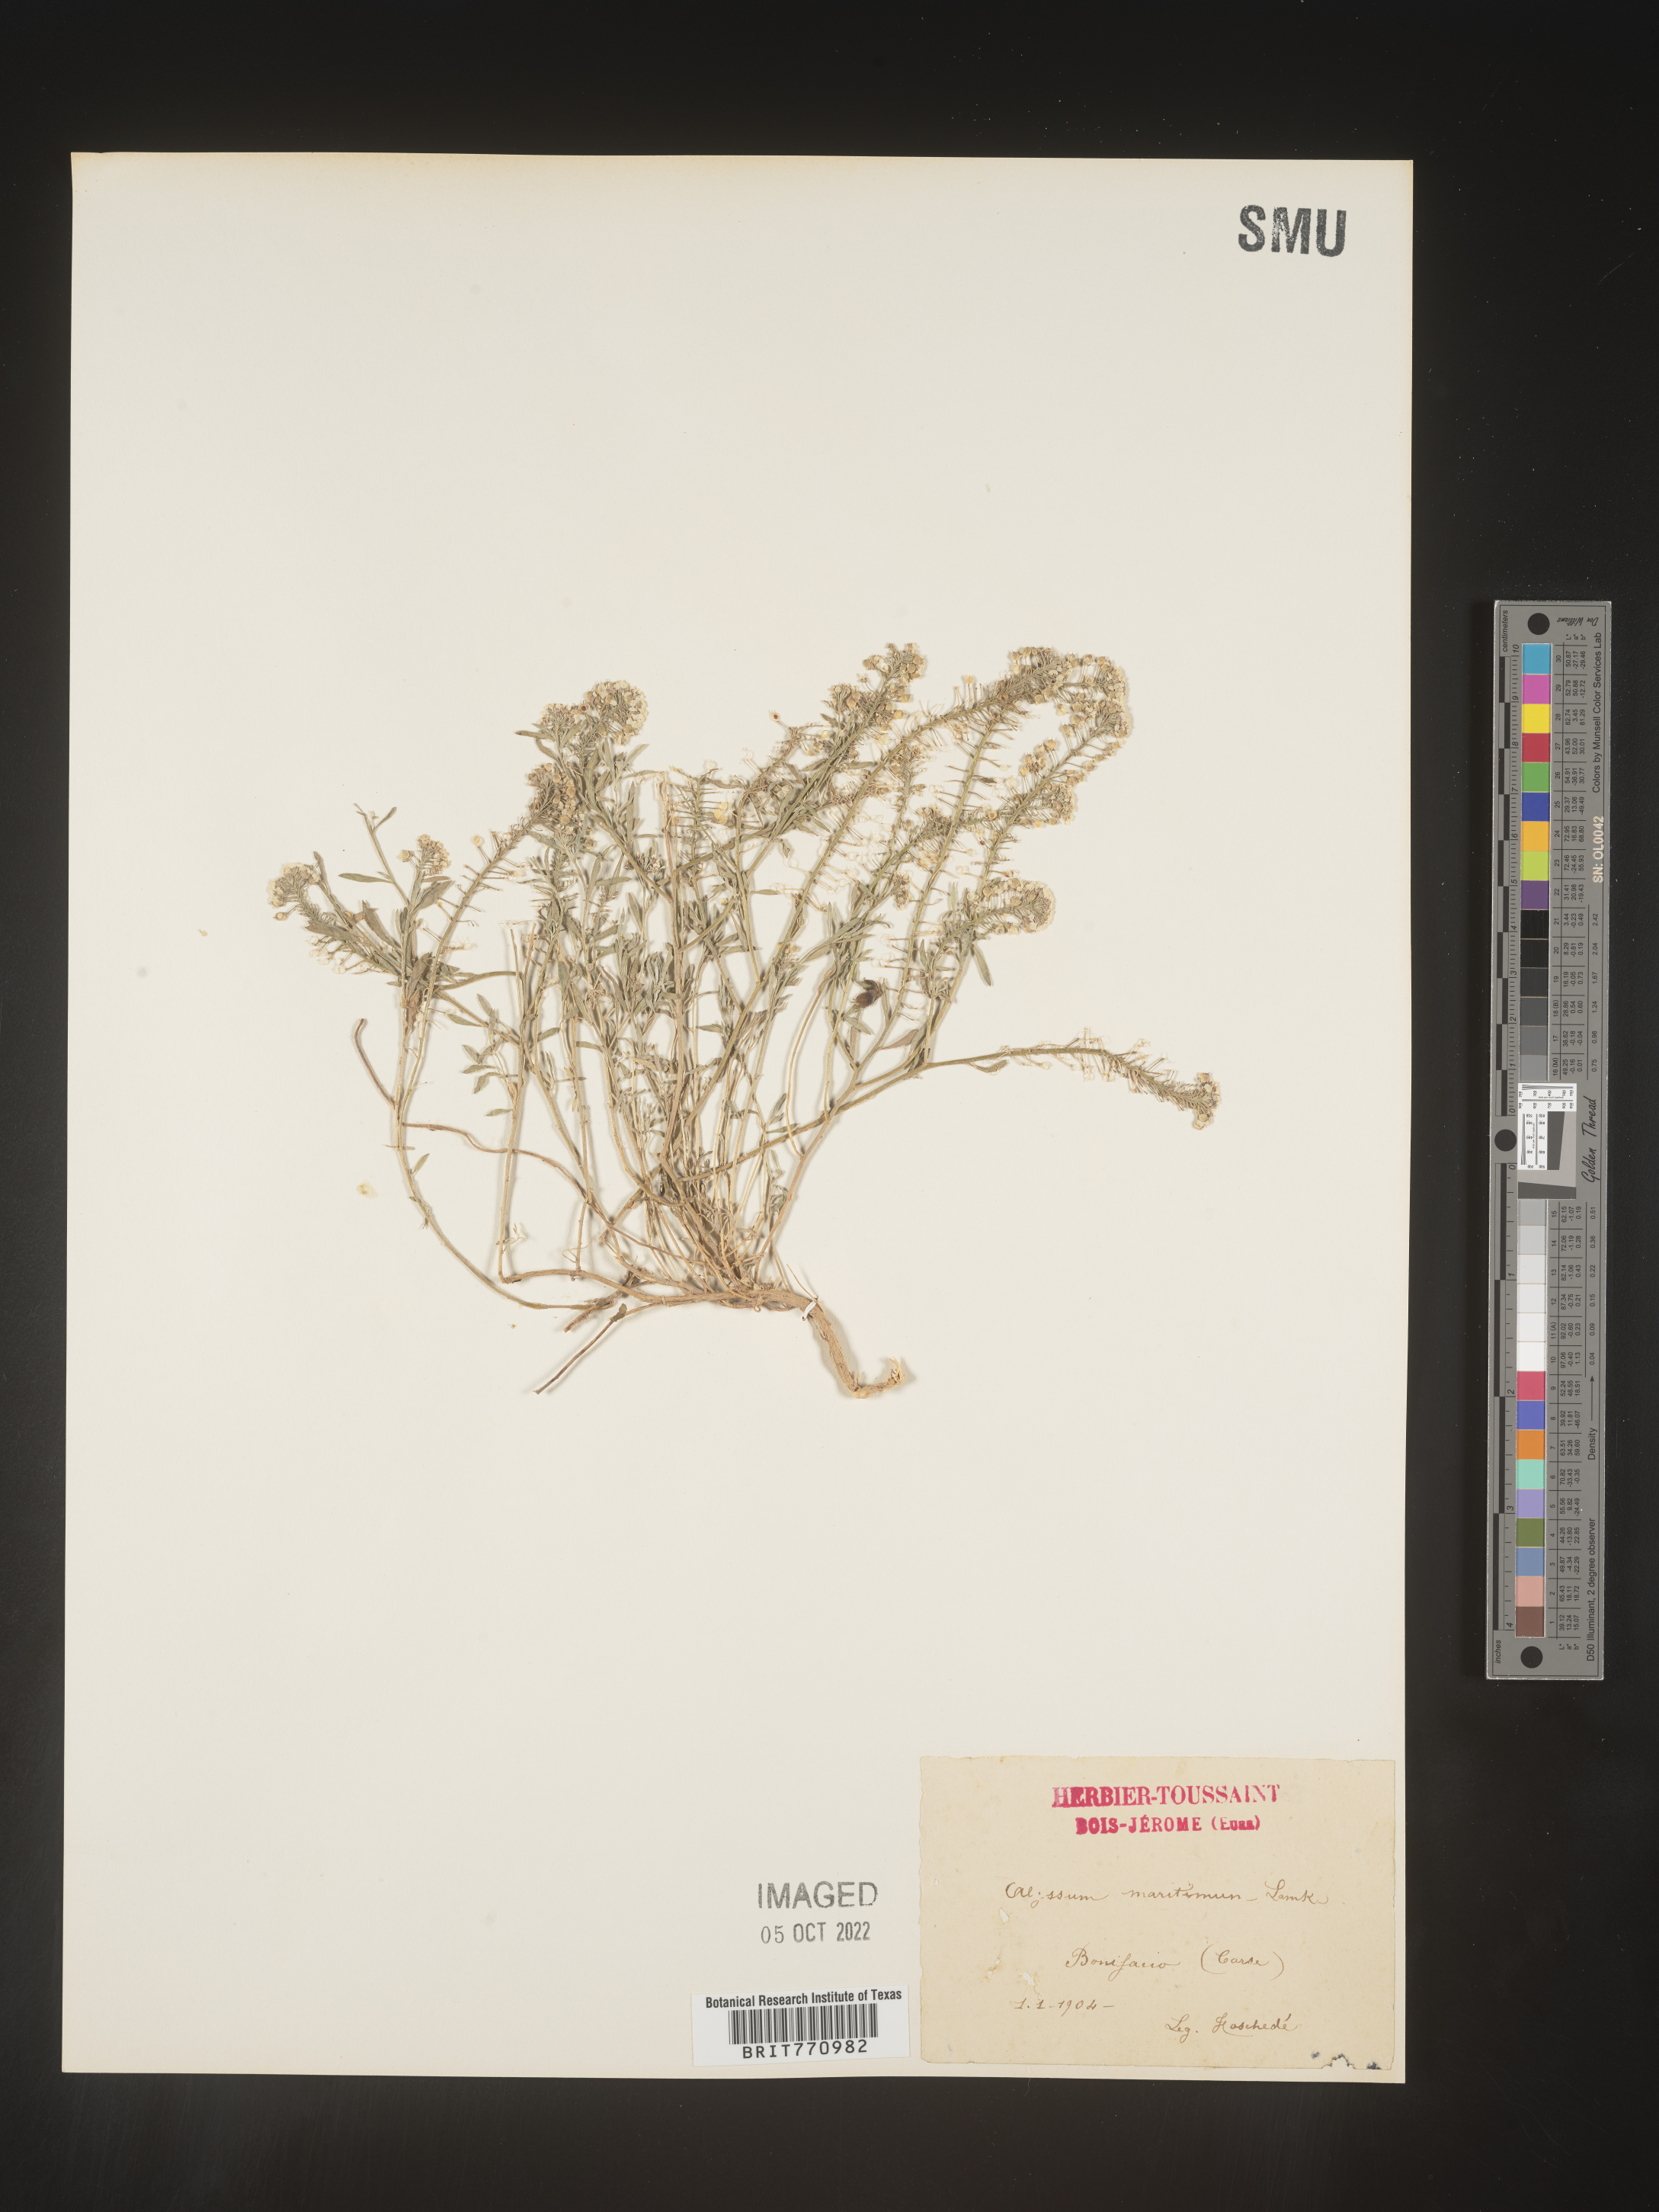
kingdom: Plantae
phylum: Tracheophyta
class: Magnoliopsida
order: Brassicales
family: Brassicaceae
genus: Alyssum
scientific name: Alyssum
